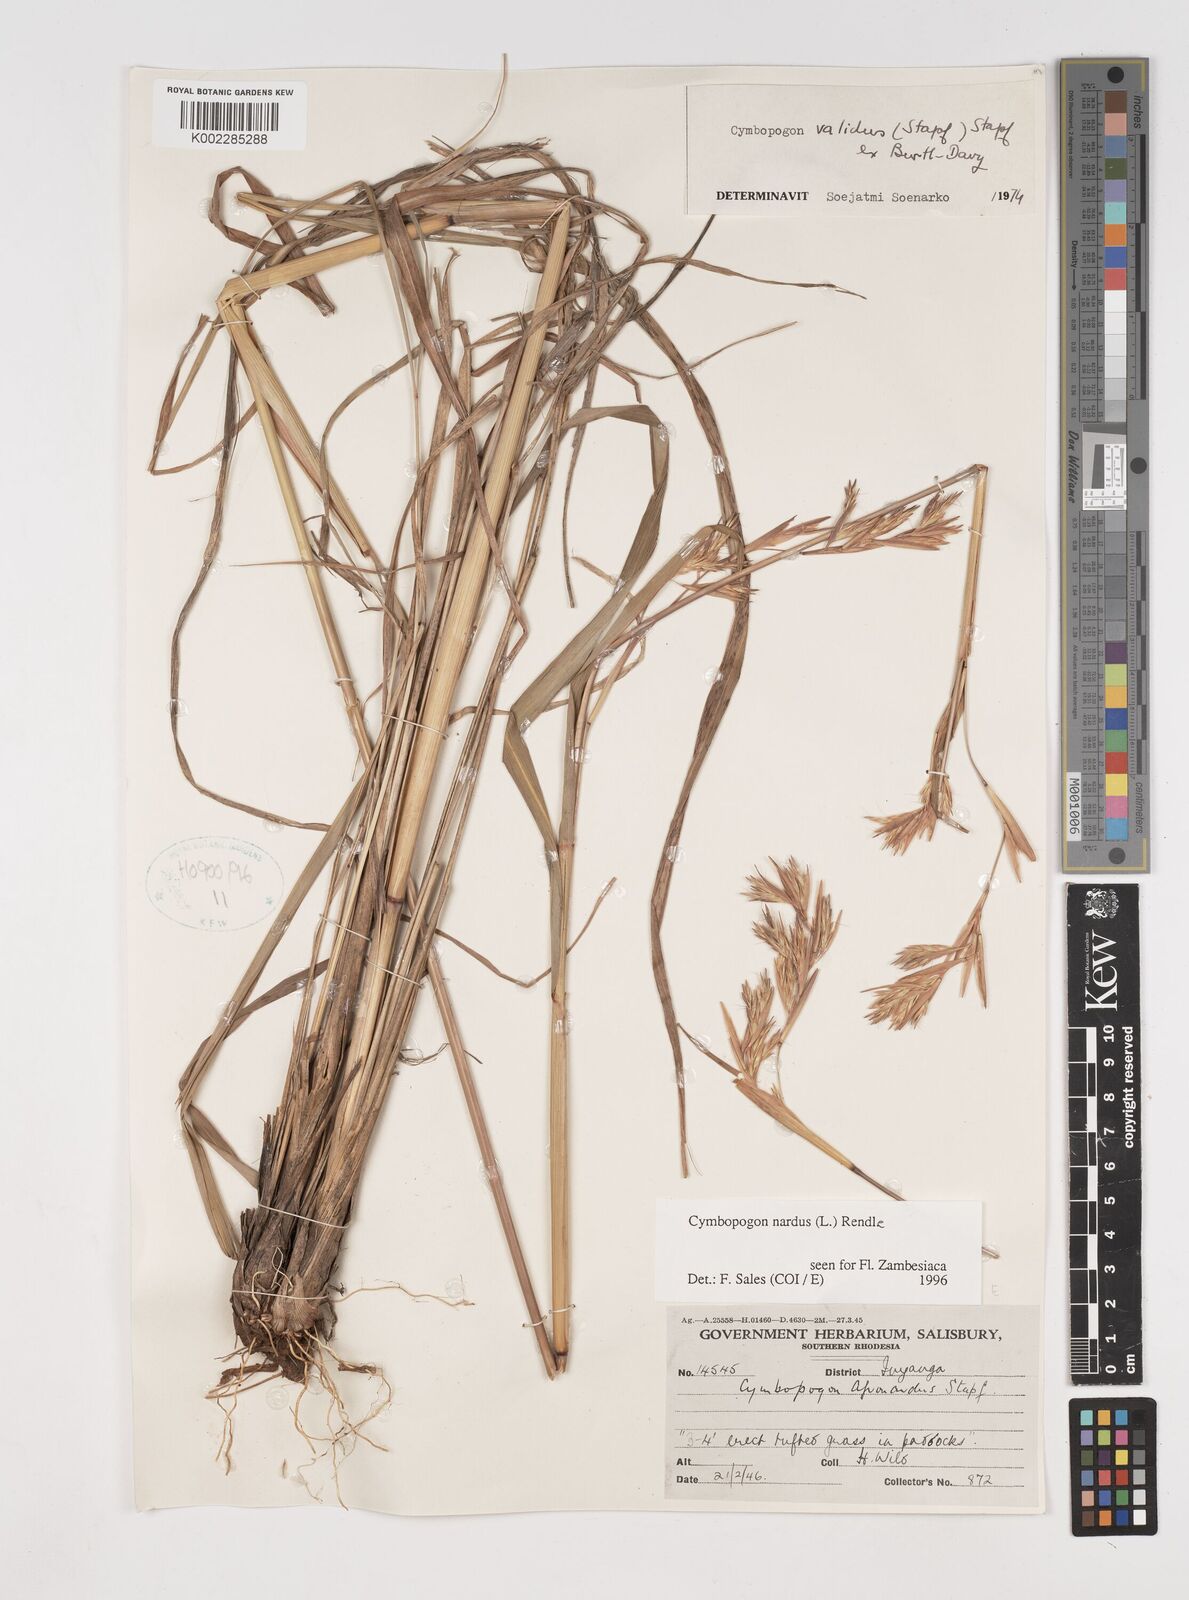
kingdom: Plantae
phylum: Tracheophyta
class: Liliopsida
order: Poales
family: Poaceae
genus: Cymbopogon
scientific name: Cymbopogon nardus
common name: Giant turpentine grass
